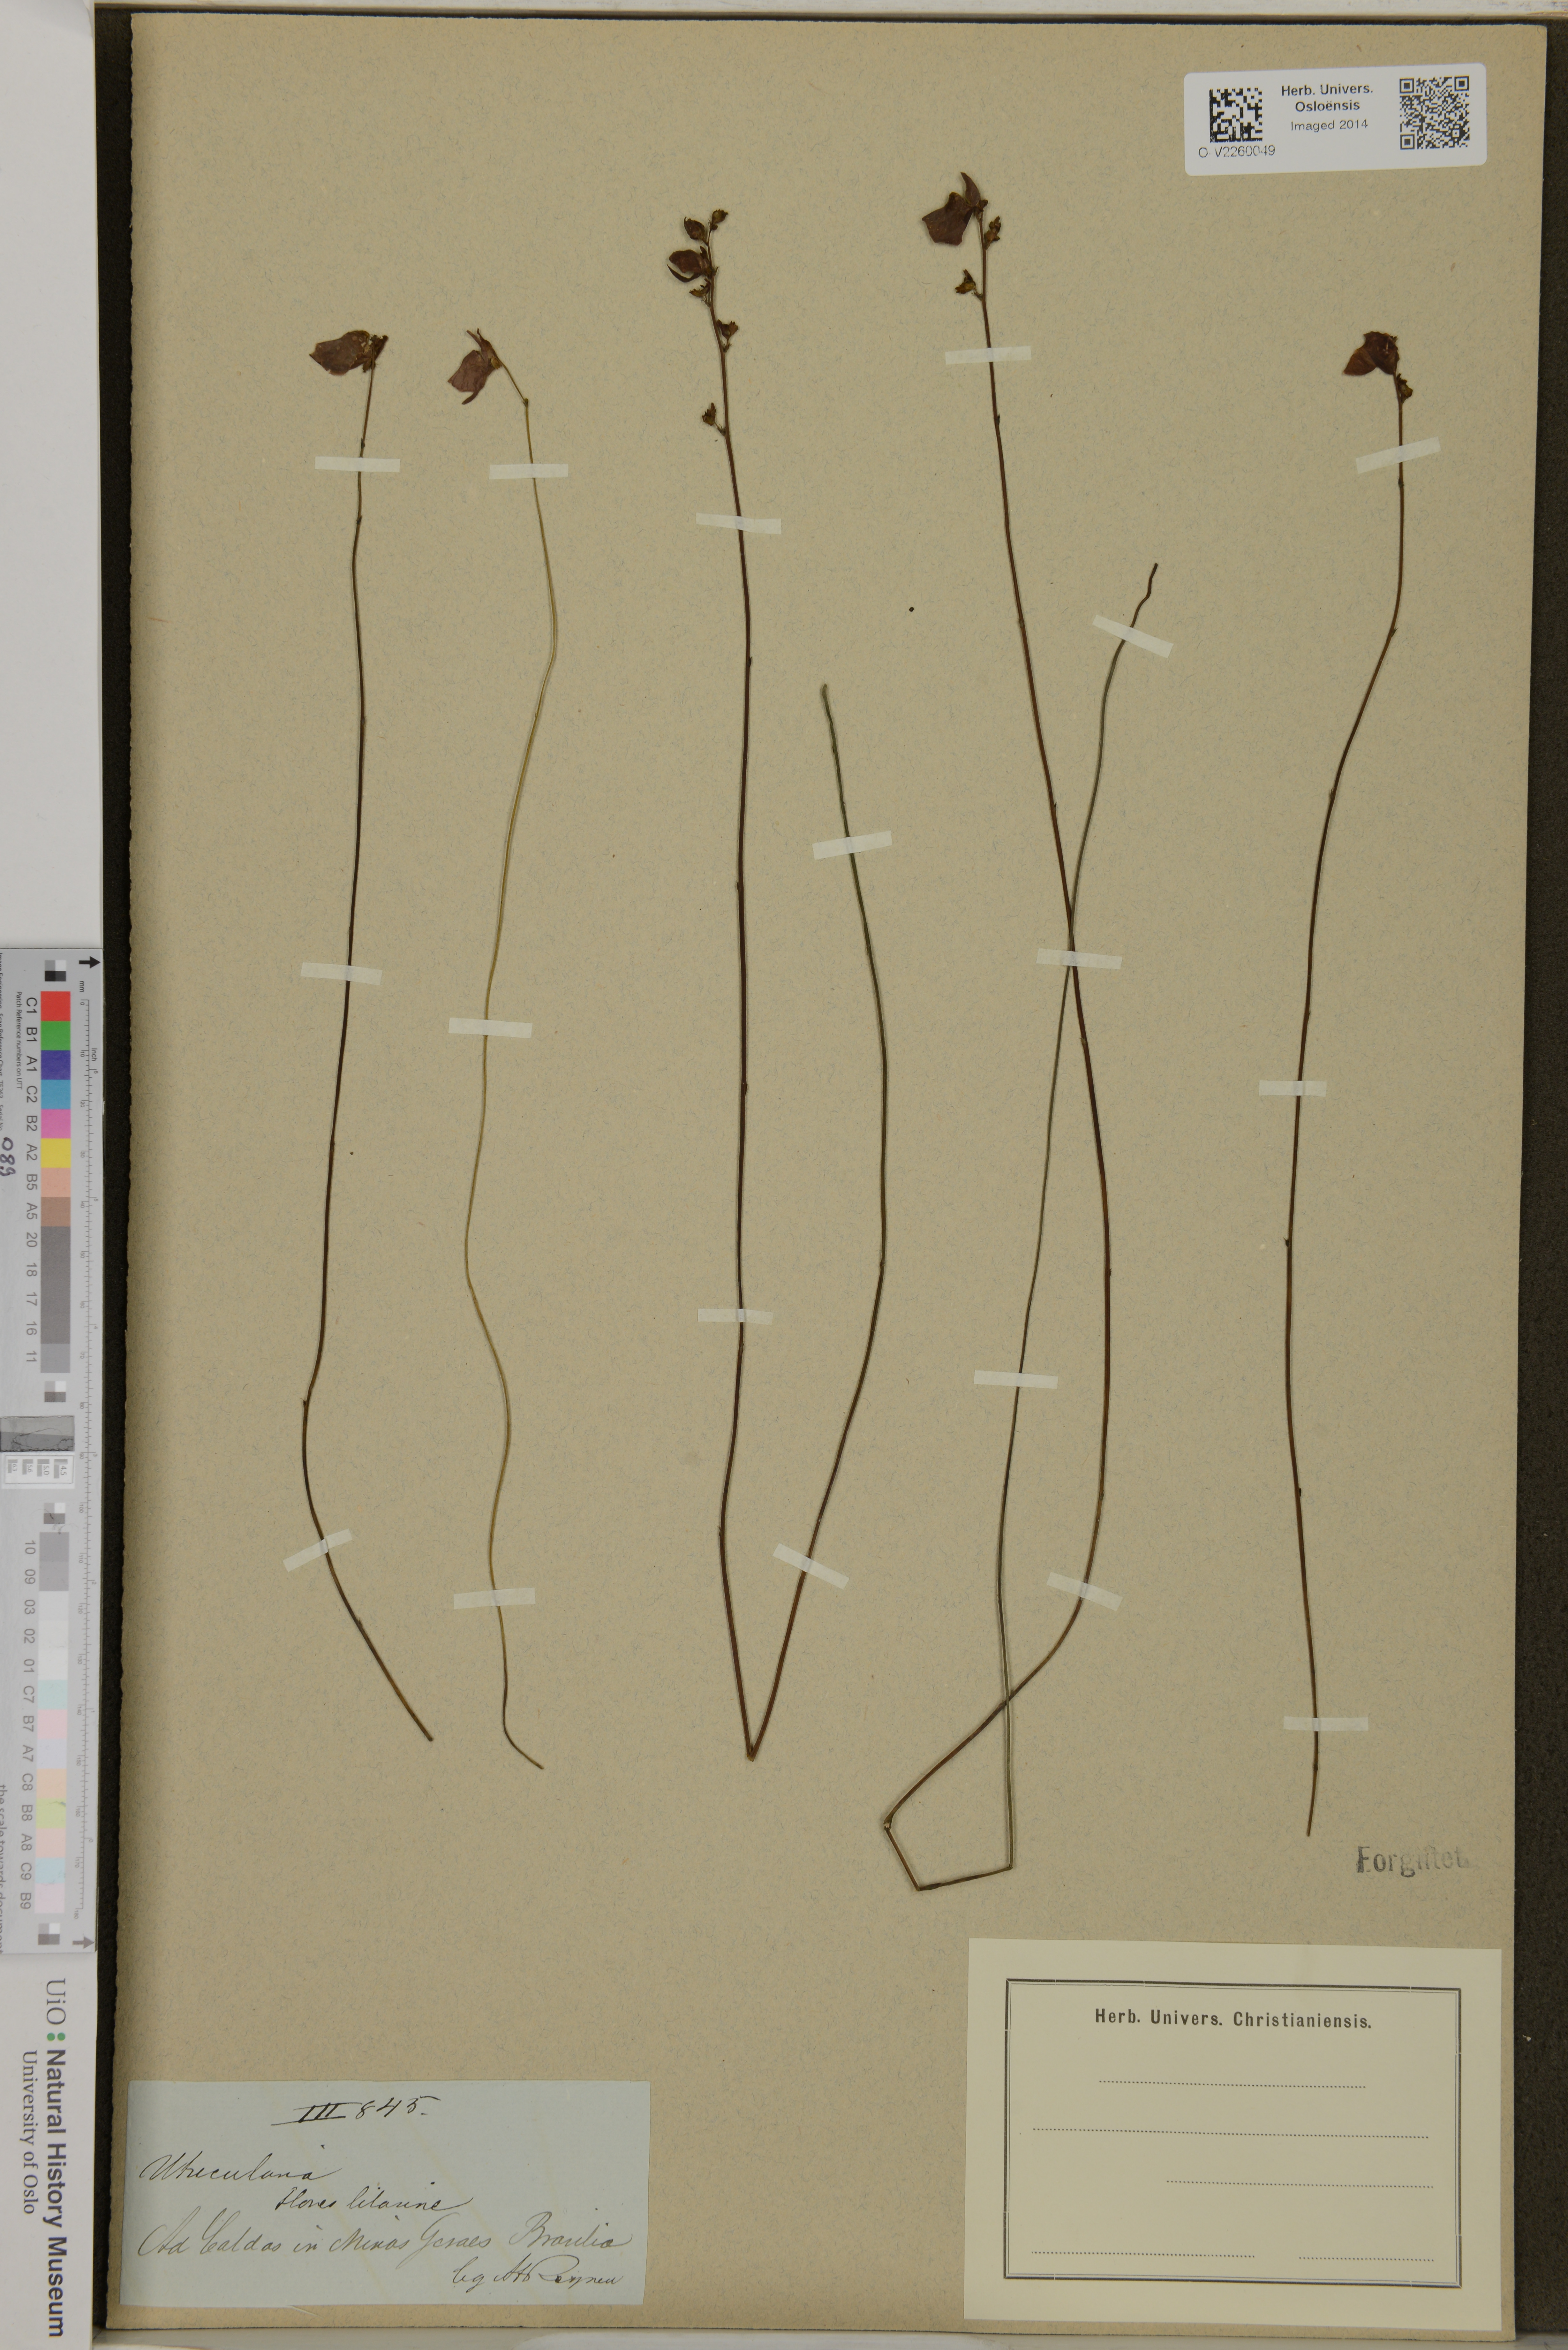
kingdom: Plantae
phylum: Tracheophyta
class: Magnoliopsida
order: Lamiales
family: Lentibulariaceae
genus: Utricularia
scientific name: Utricularia
